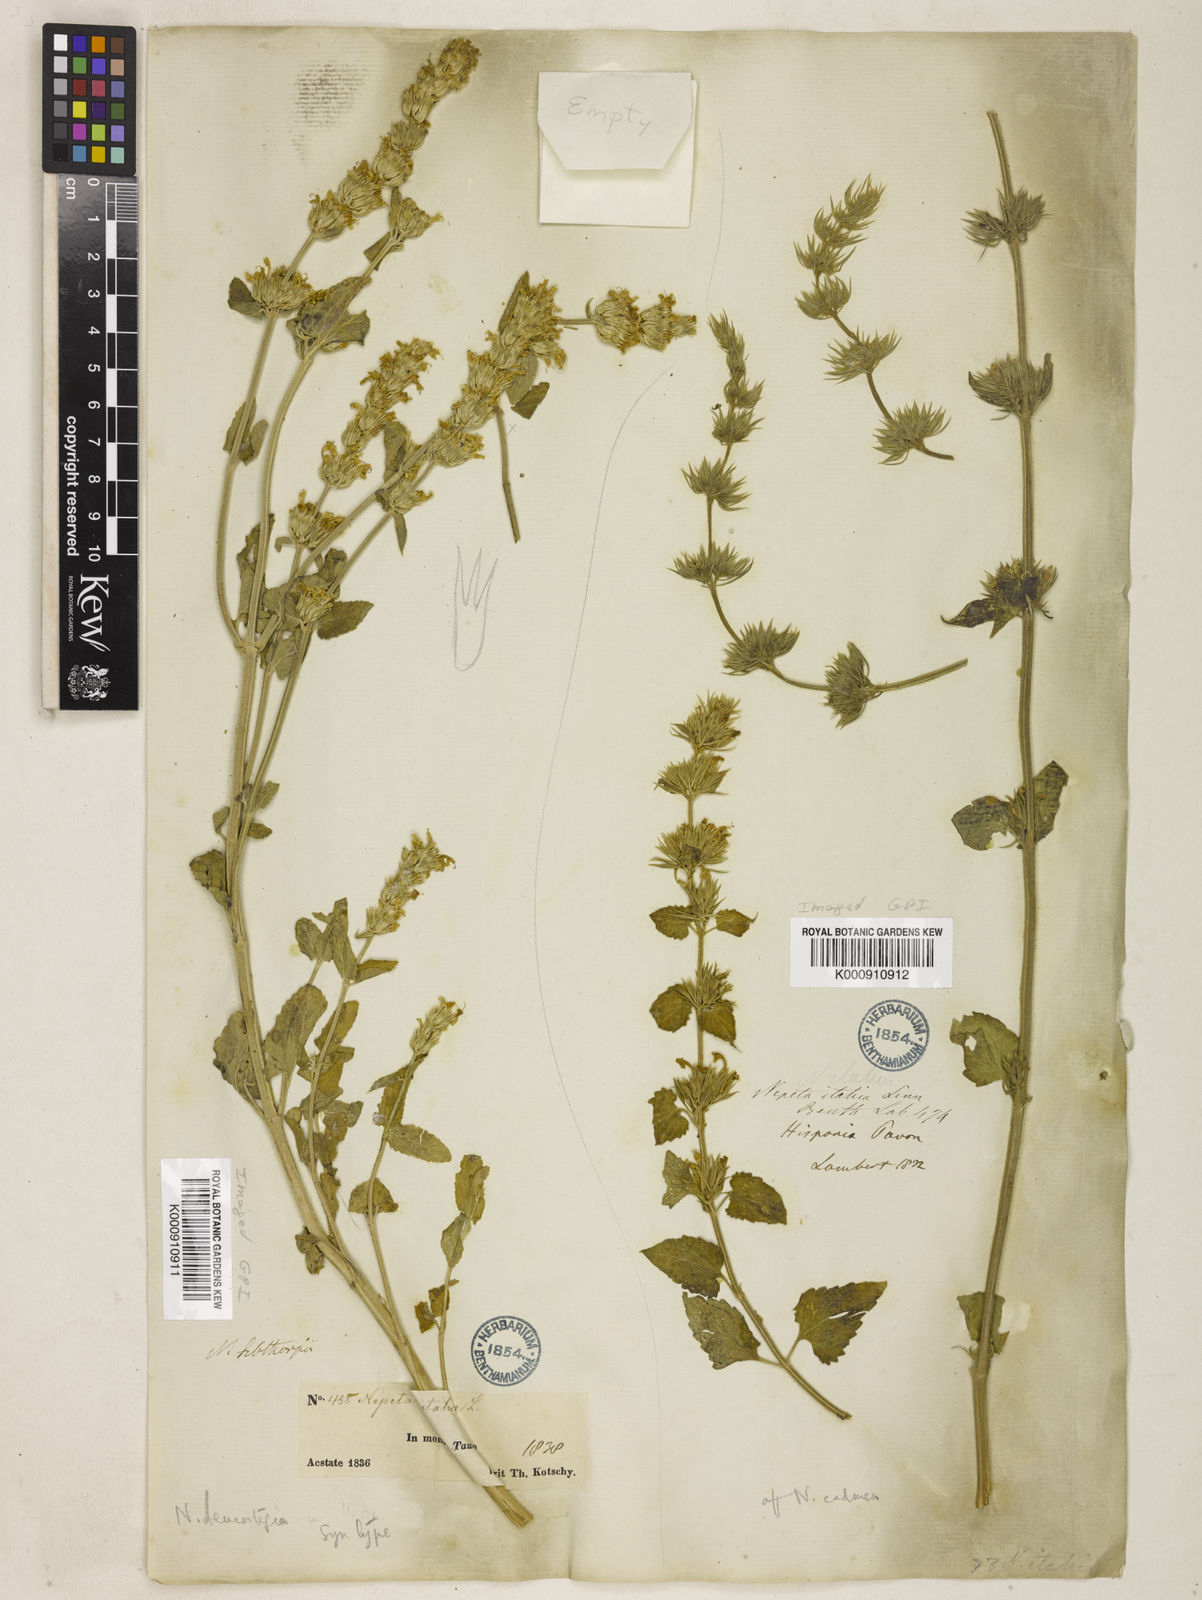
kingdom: Plantae
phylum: Tracheophyta
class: Magnoliopsida
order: Lamiales
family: Lamiaceae
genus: Nepeta
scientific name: Nepeta italica
